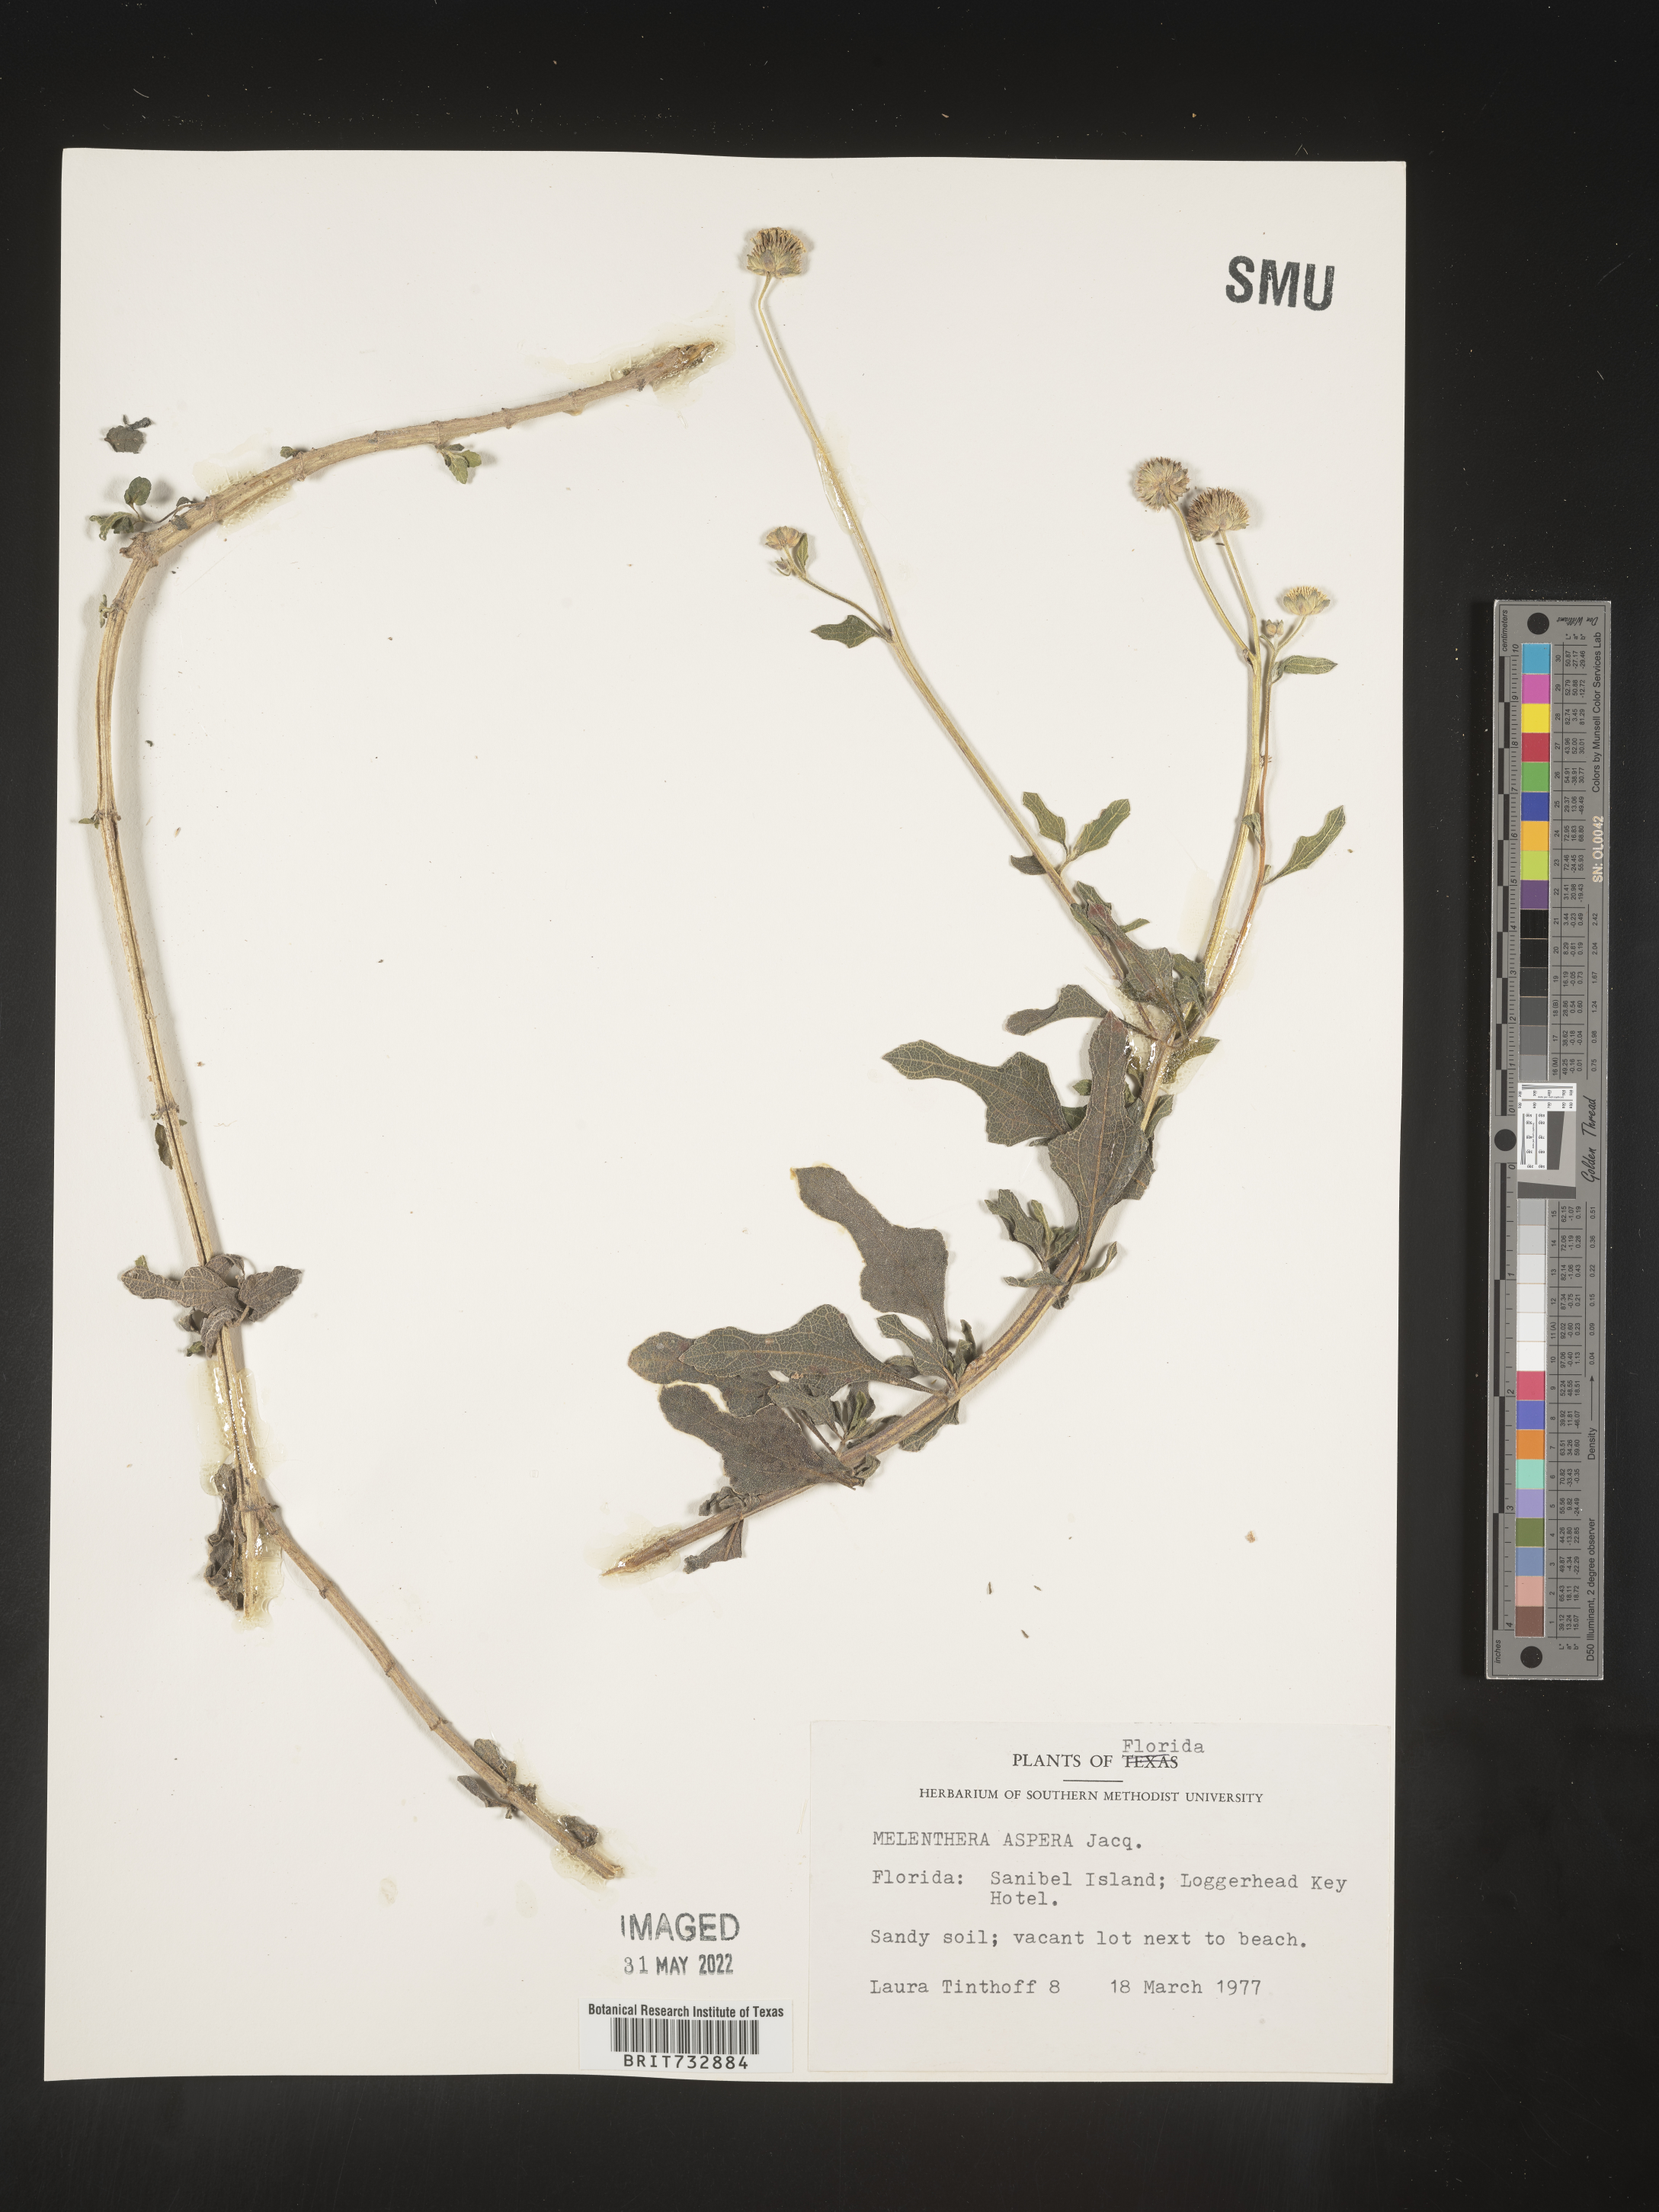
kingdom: Plantae
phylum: Tracheophyta
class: Magnoliopsida
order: Asterales
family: Asteraceae
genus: Melanthera
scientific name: Melanthera nivea
